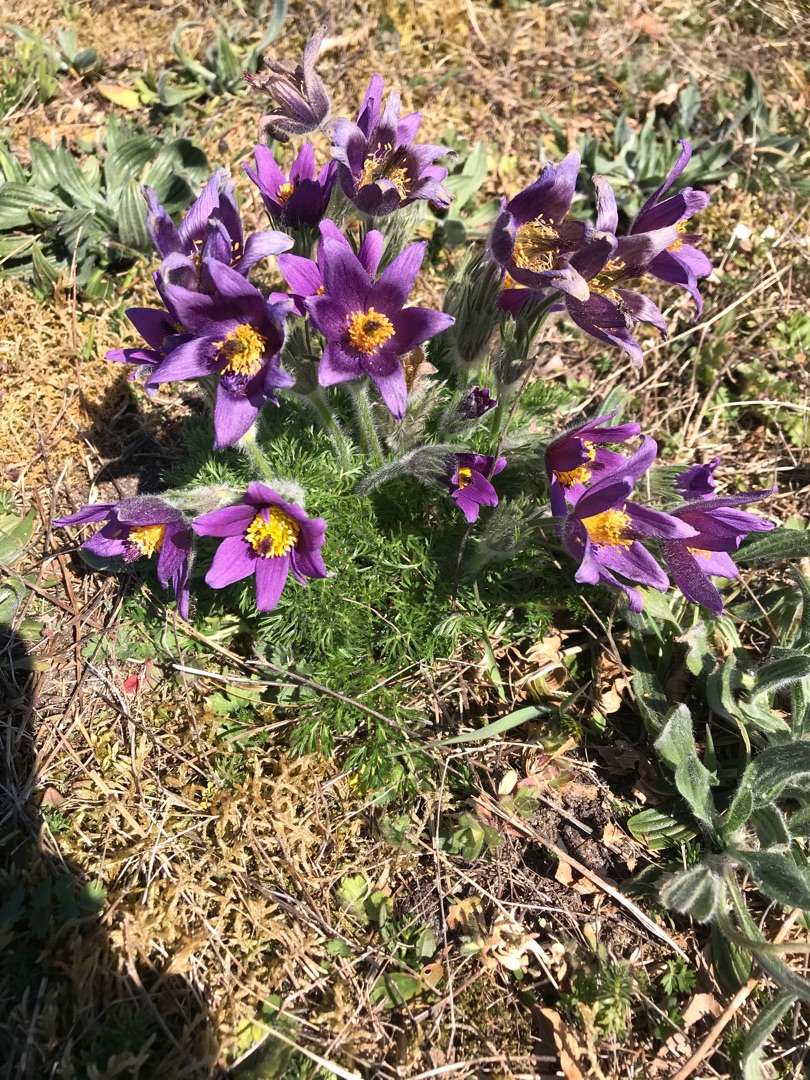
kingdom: Plantae
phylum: Tracheophyta
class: Magnoliopsida
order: Ranunculales
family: Ranunculaceae
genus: Pulsatilla
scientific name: Pulsatilla vulgaris
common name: Opret kobjælde
